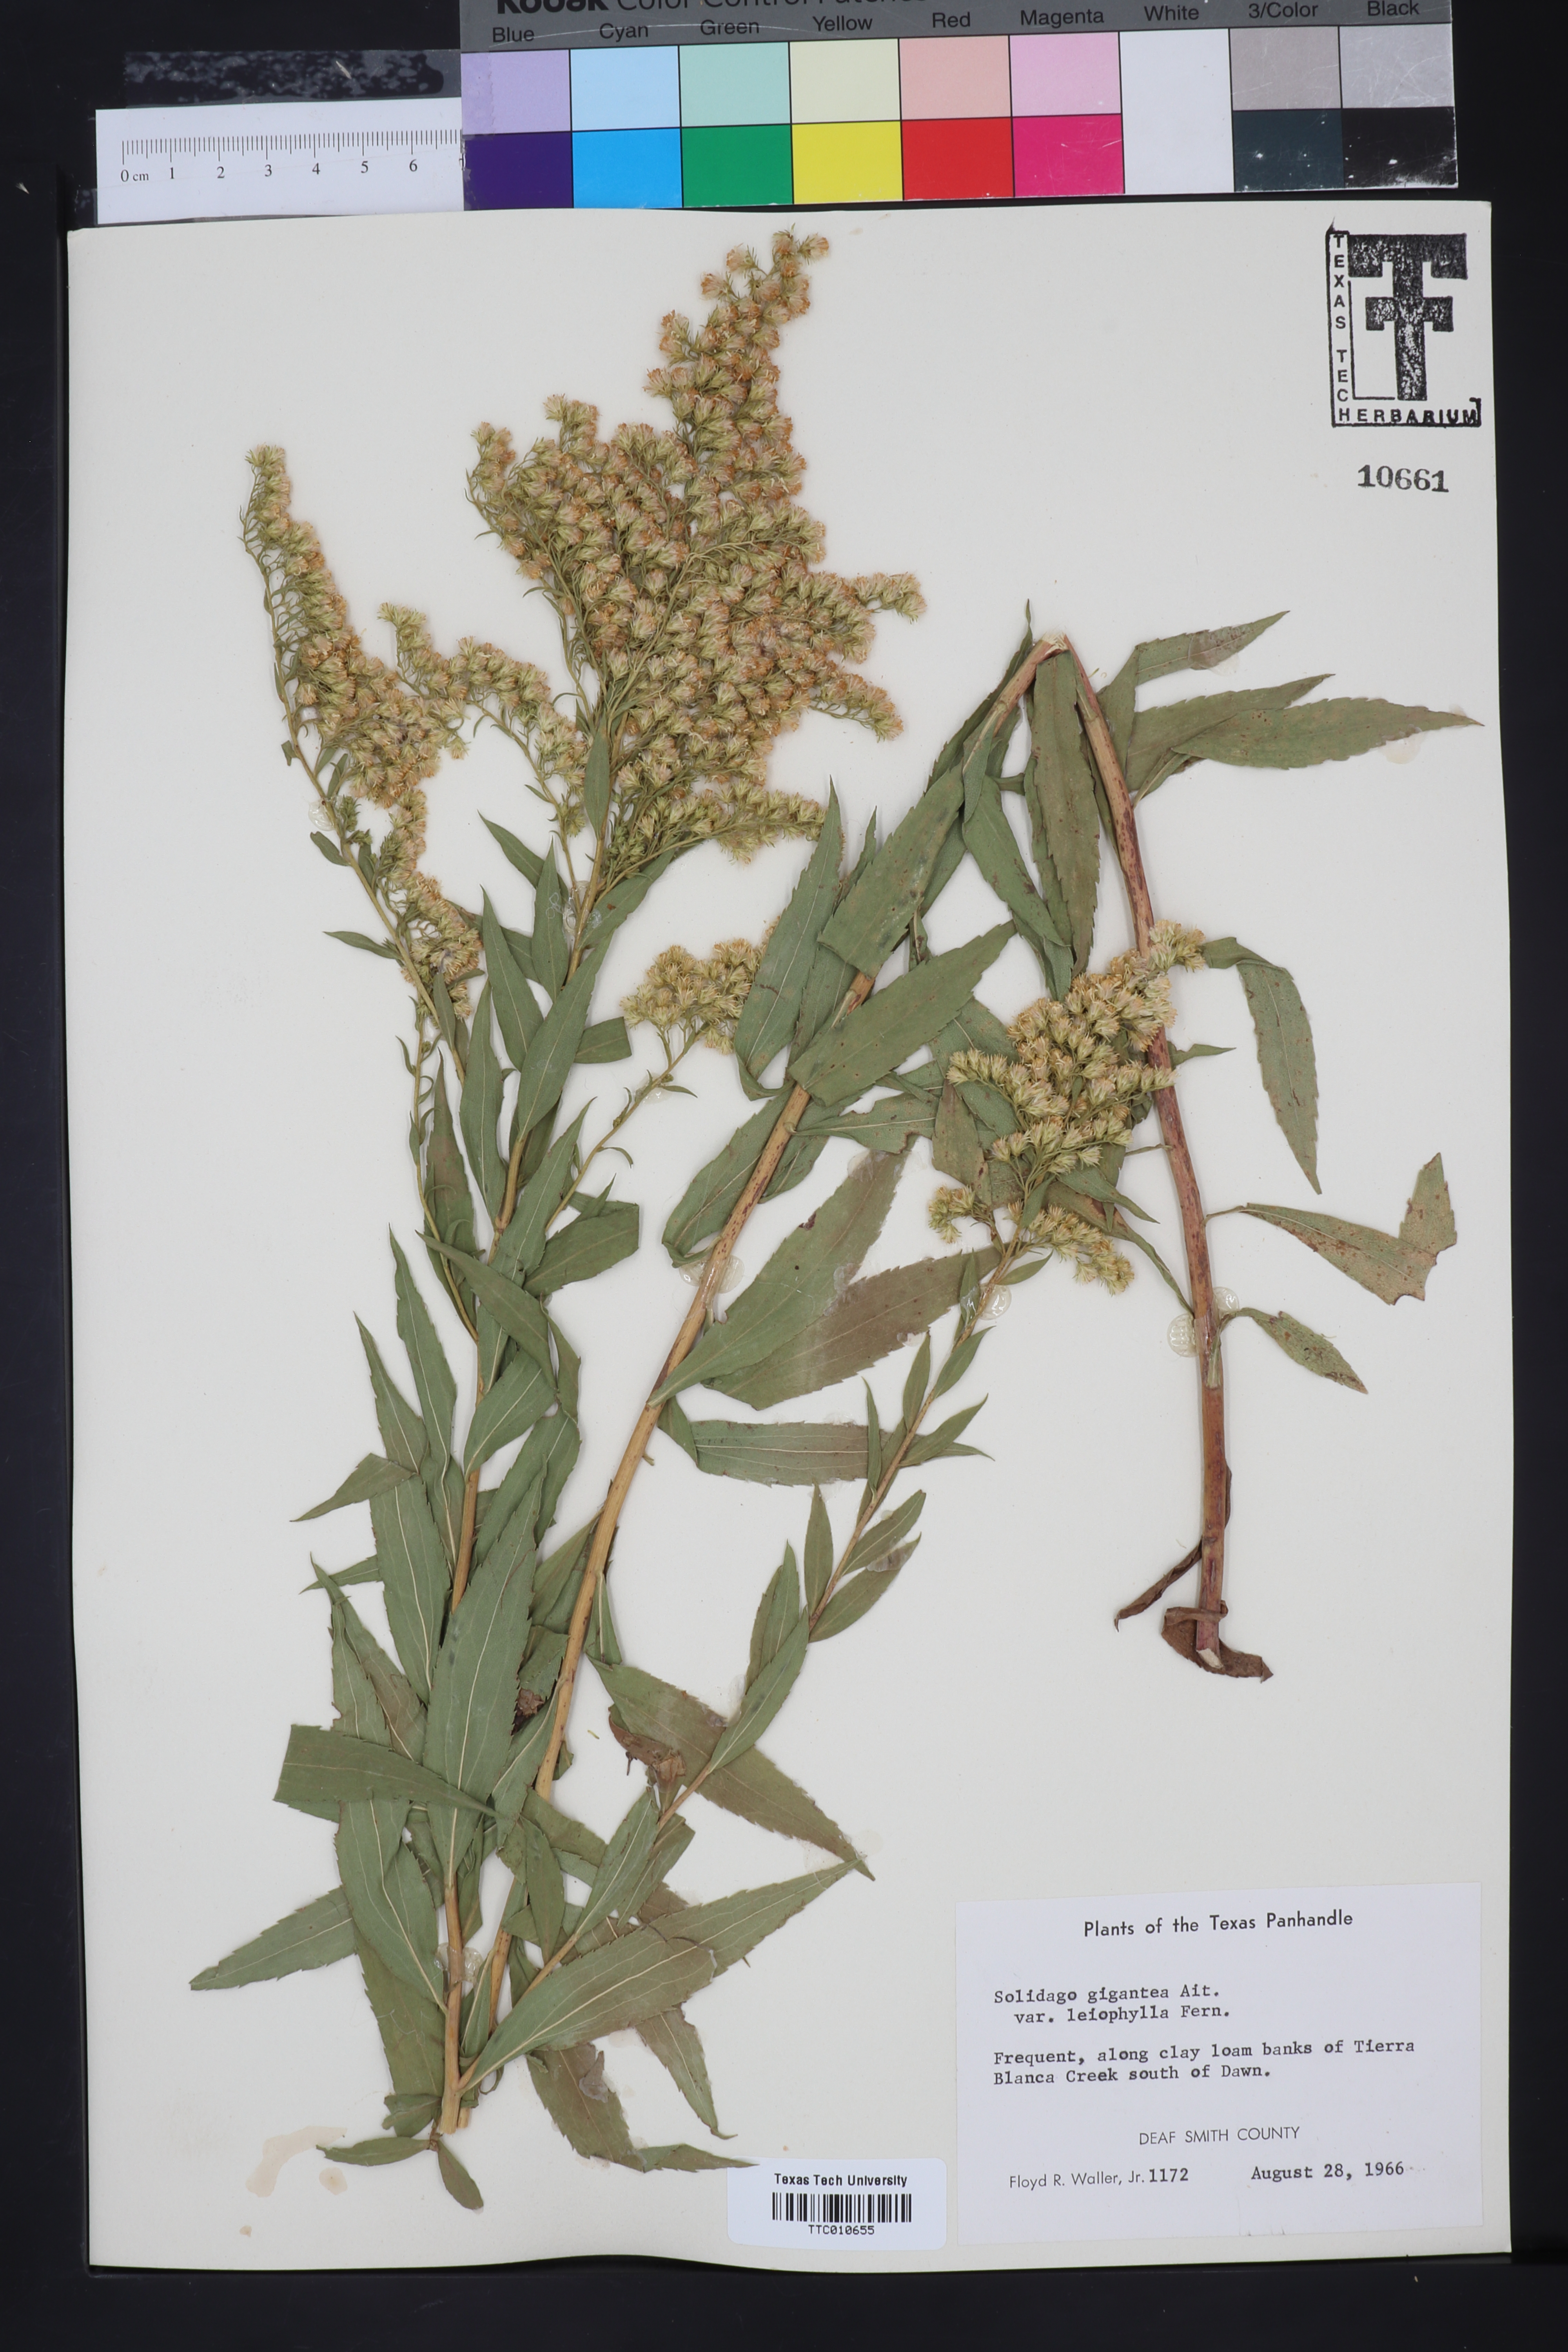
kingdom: Plantae
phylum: Tracheophyta
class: Magnoliopsida
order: Asterales
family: Asteraceae
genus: Solidago
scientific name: Solidago gigantea
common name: Giant goldenrod
